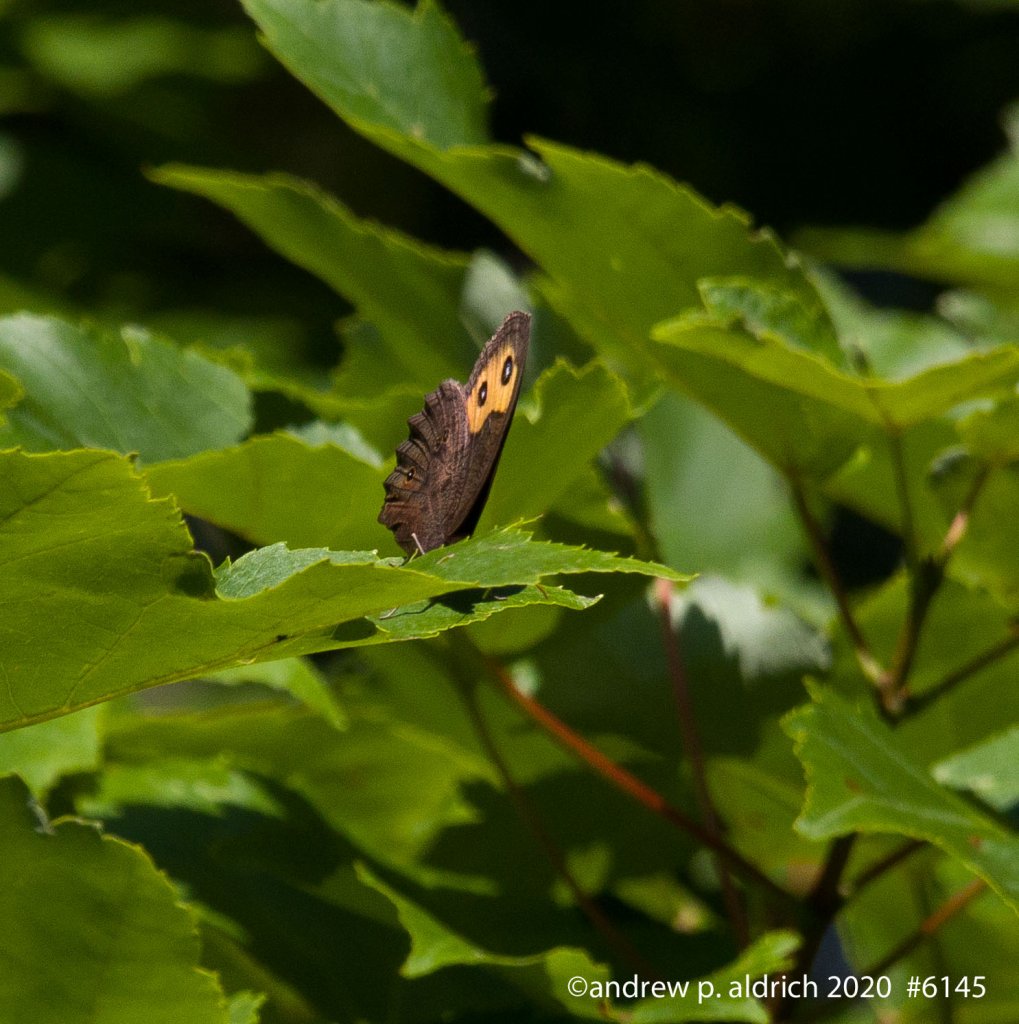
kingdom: Animalia
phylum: Arthropoda
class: Insecta
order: Lepidoptera
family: Nymphalidae
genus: Cercyonis
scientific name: Cercyonis pegala
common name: Common Wood-Nymph
